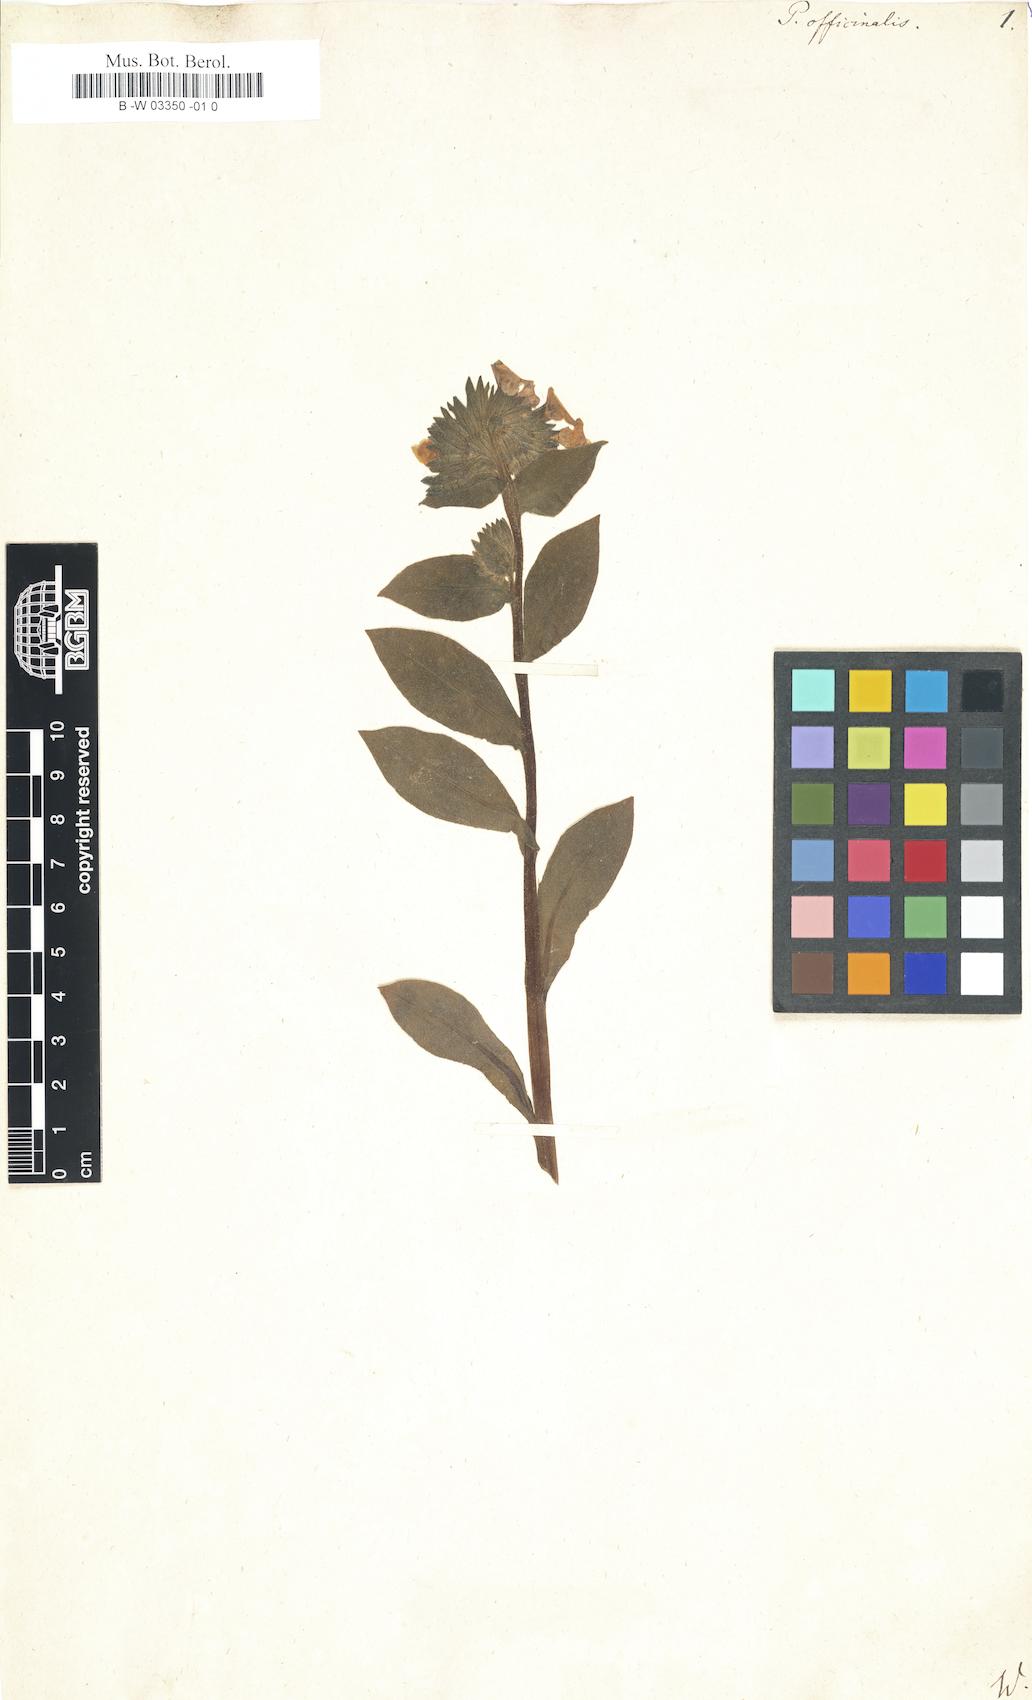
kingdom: Plantae
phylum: Tracheophyta
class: Magnoliopsida
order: Boraginales
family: Boraginaceae
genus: Pulmonaria
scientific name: Pulmonaria officinalis
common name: Lungwort
